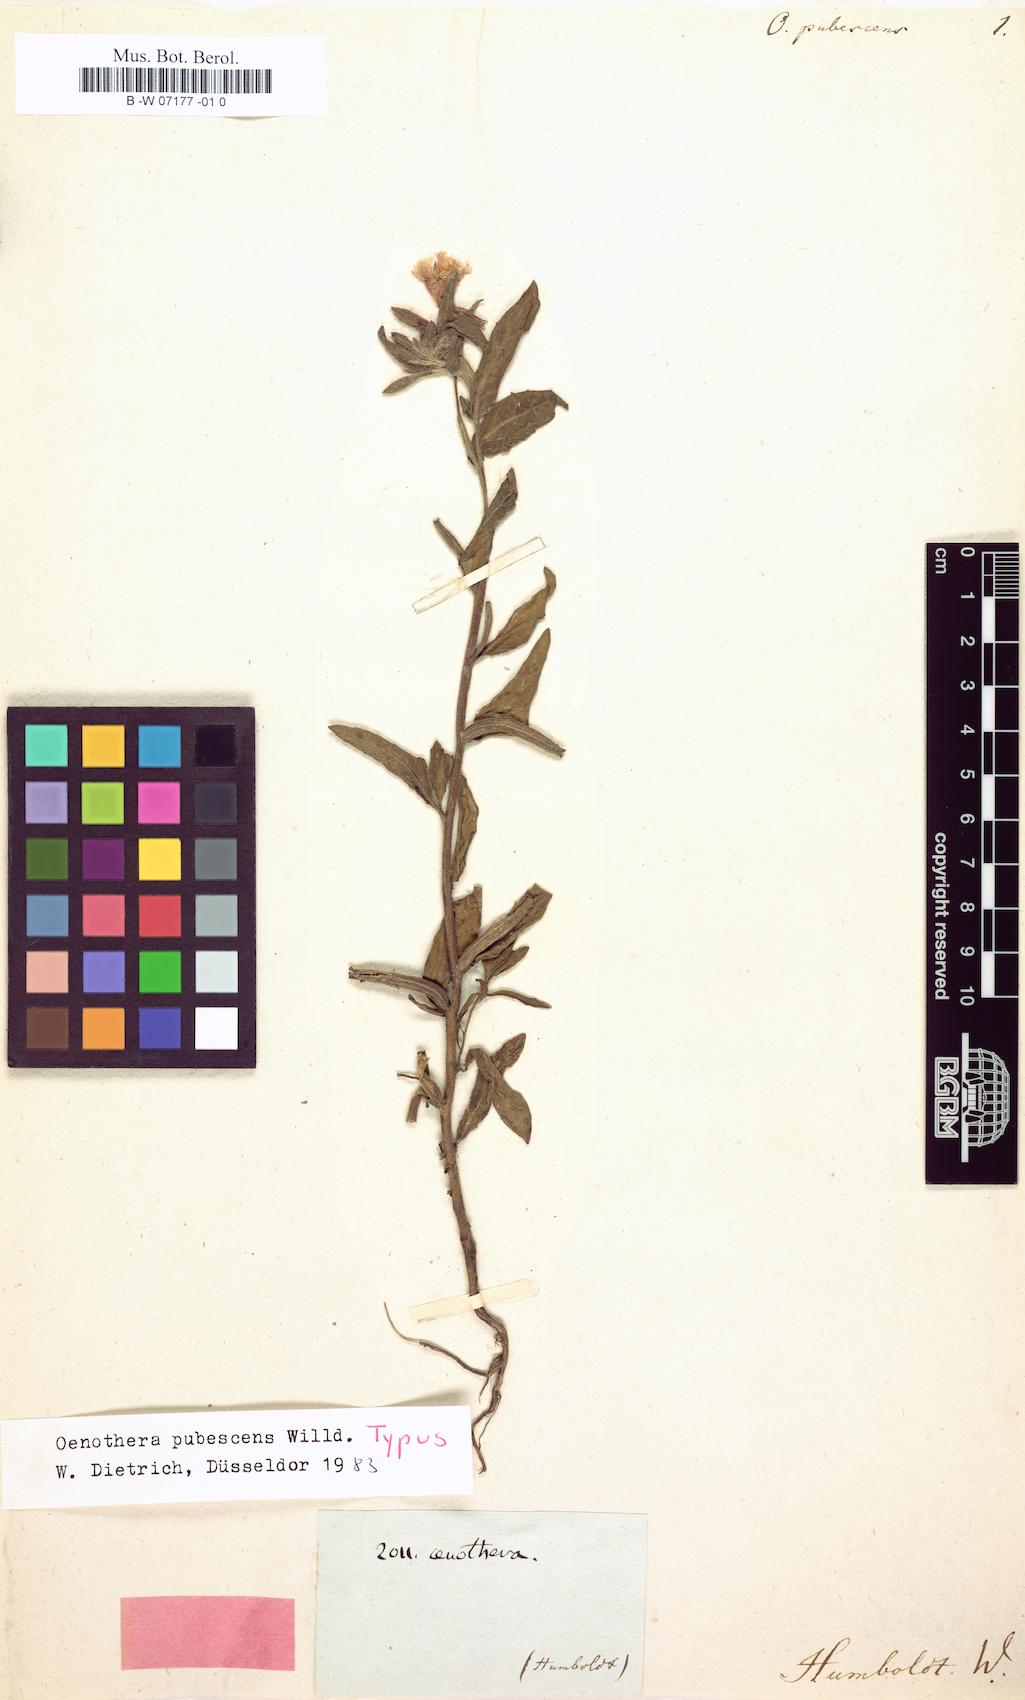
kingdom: Plantae
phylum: Tracheophyta
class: Magnoliopsida
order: Myrtales
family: Onagraceae
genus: Oenothera
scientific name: Oenothera pubescens
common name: South american evening-primrose
